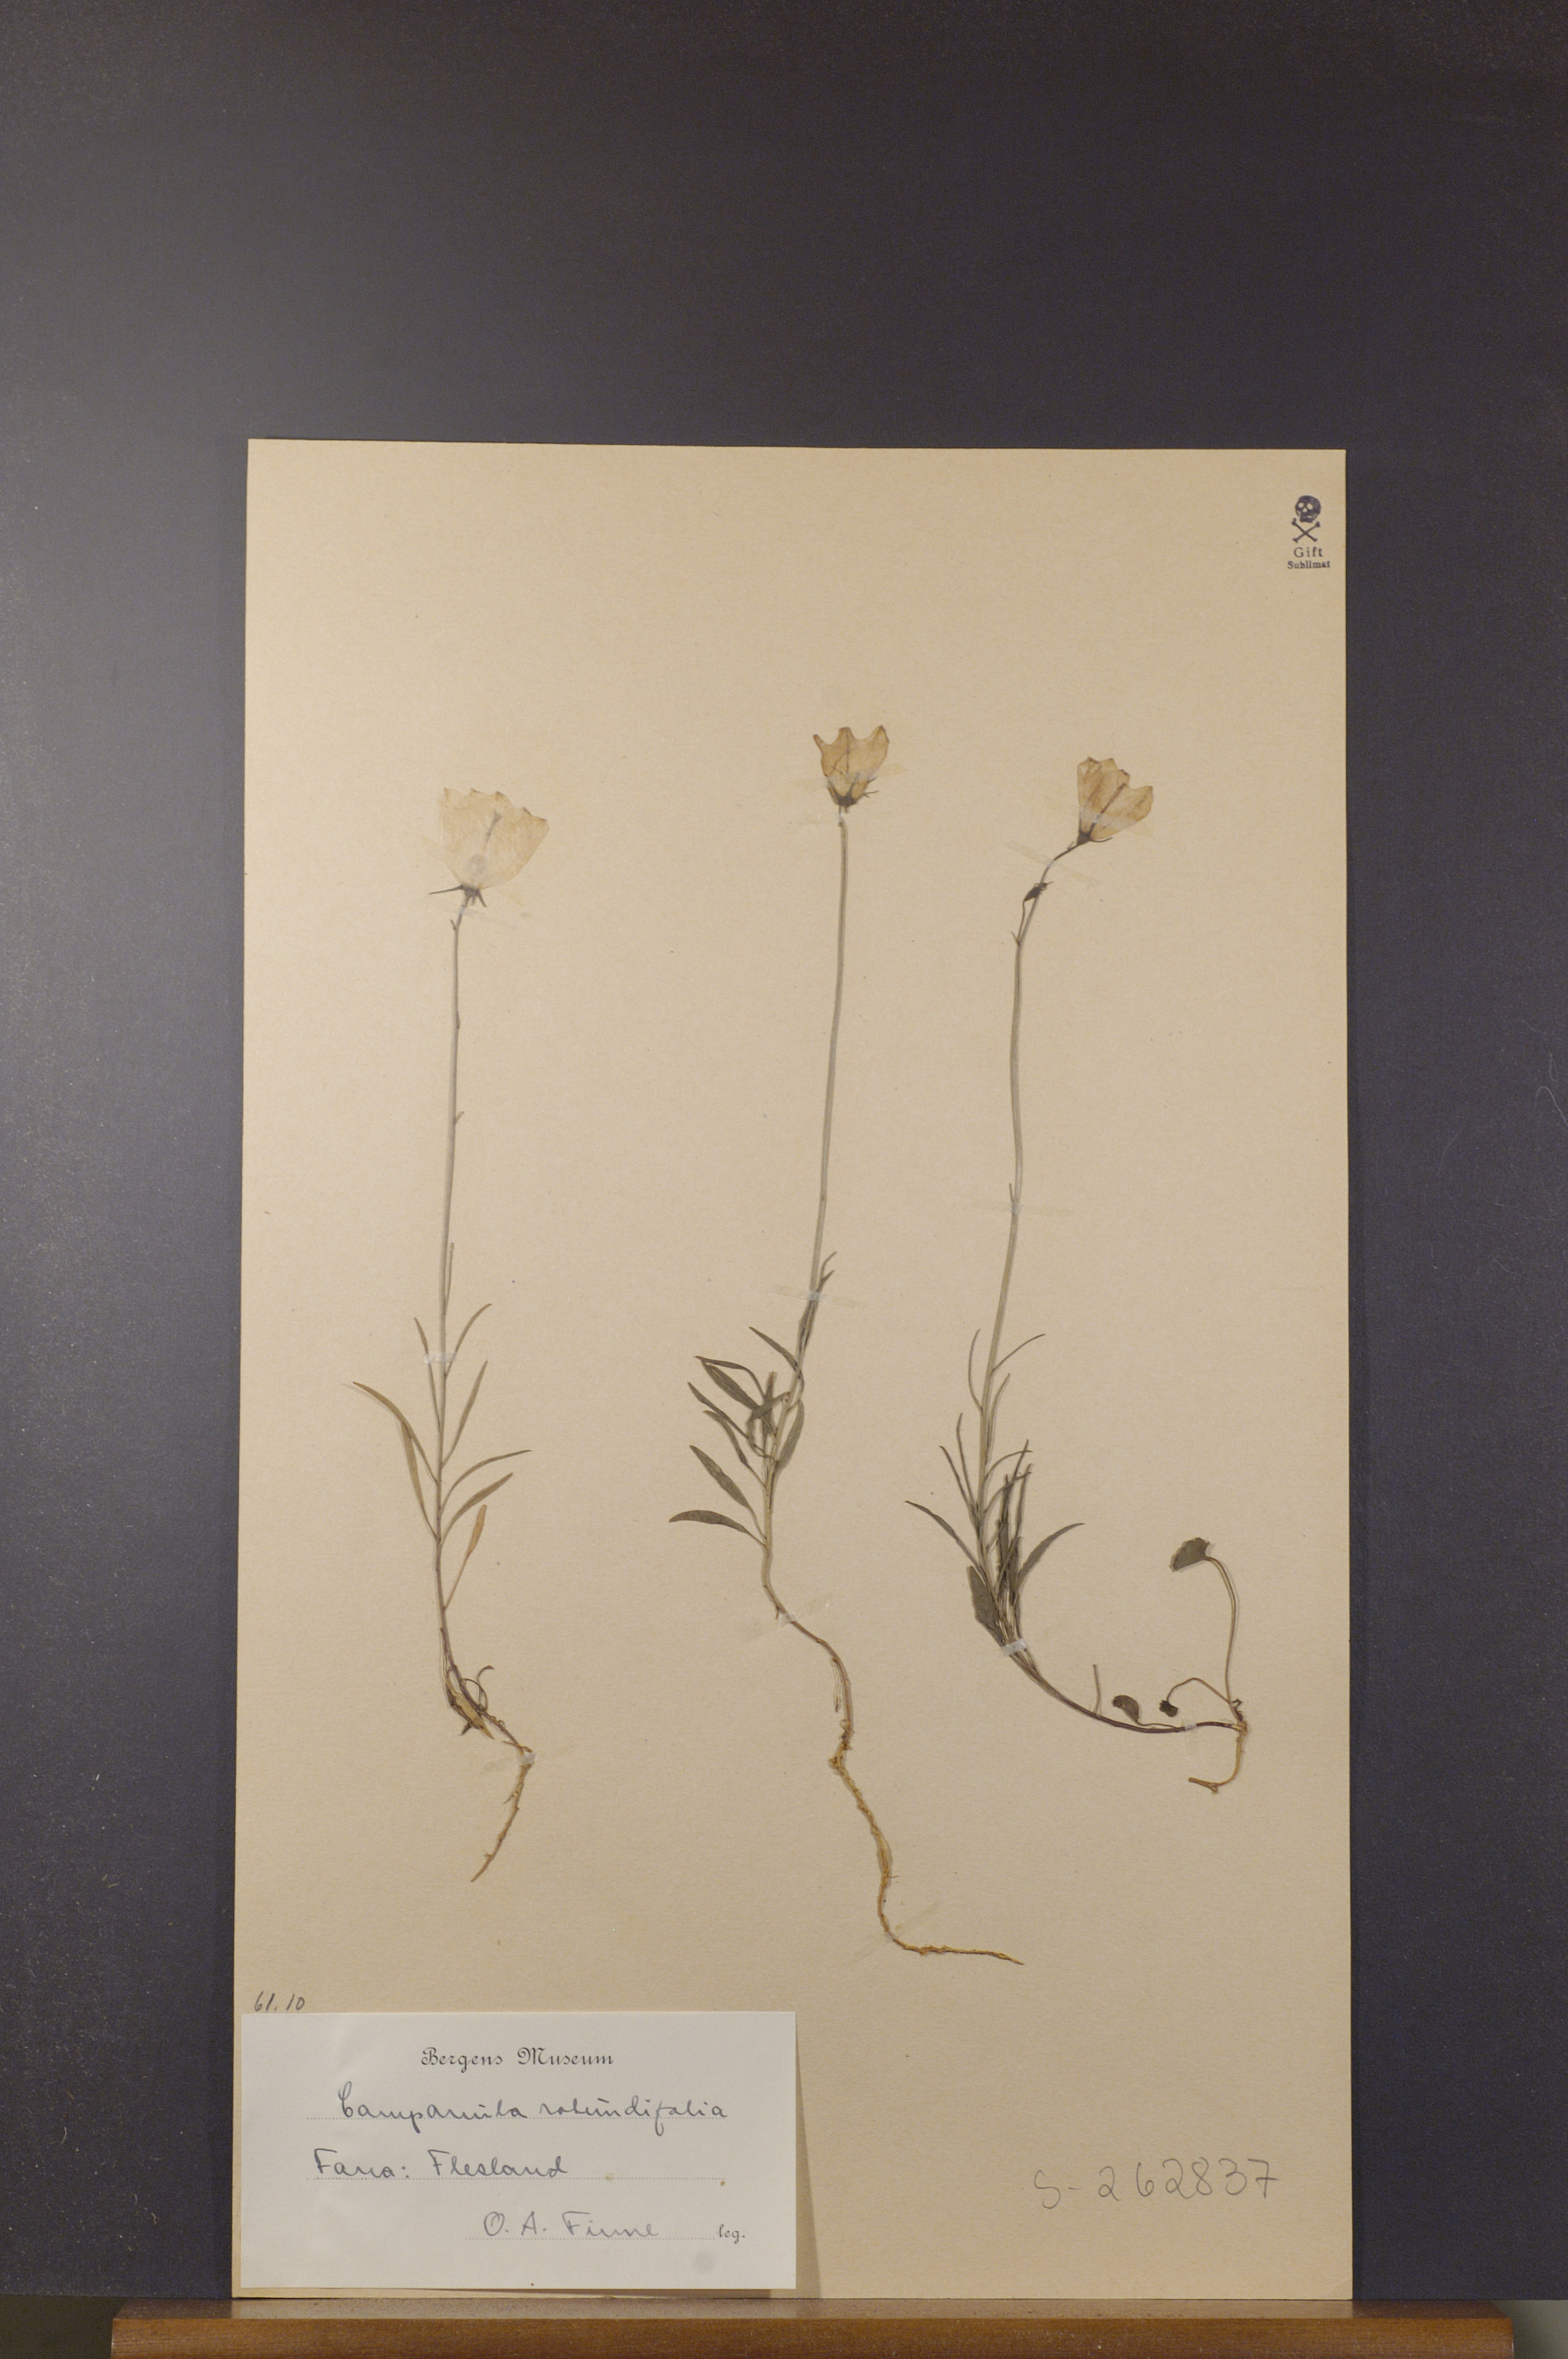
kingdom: Plantae
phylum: Tracheophyta
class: Magnoliopsida
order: Asterales
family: Campanulaceae
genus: Campanula
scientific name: Campanula rotundifolia
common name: Harebell
